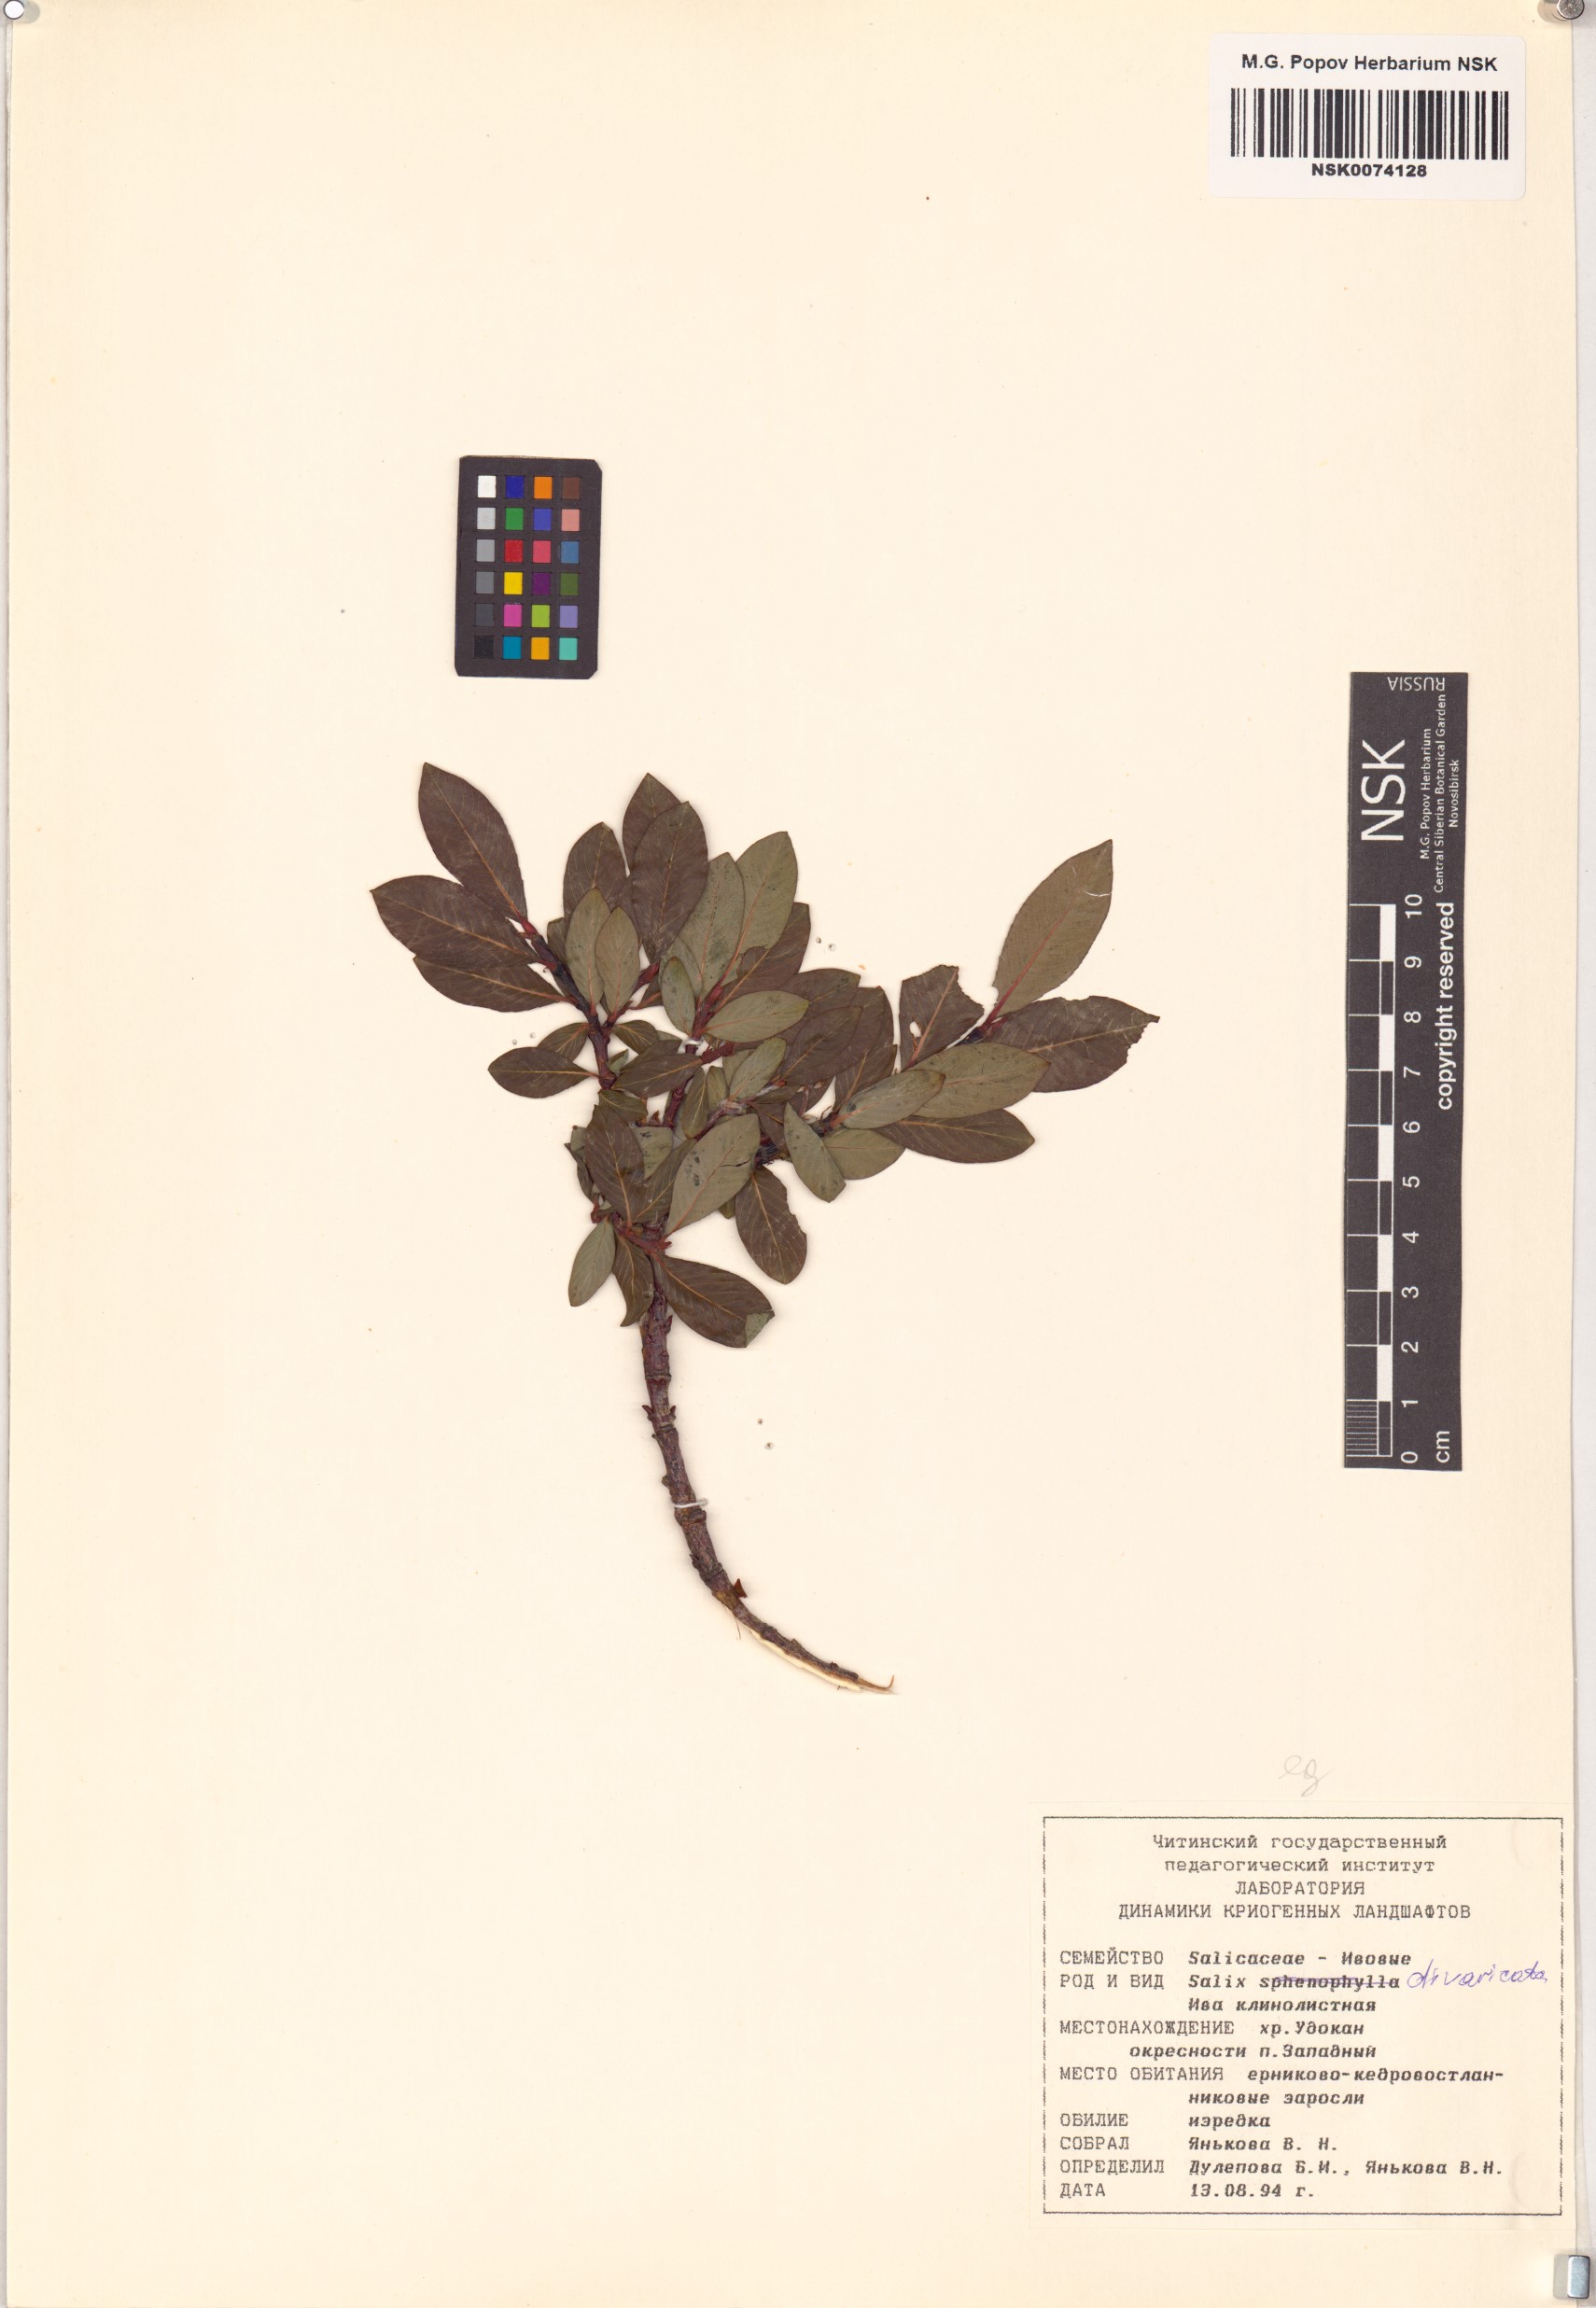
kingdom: Plantae
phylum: Tracheophyta
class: Magnoliopsida
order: Malpighiales
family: Salicaceae
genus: Salix
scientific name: Salix divaricata
